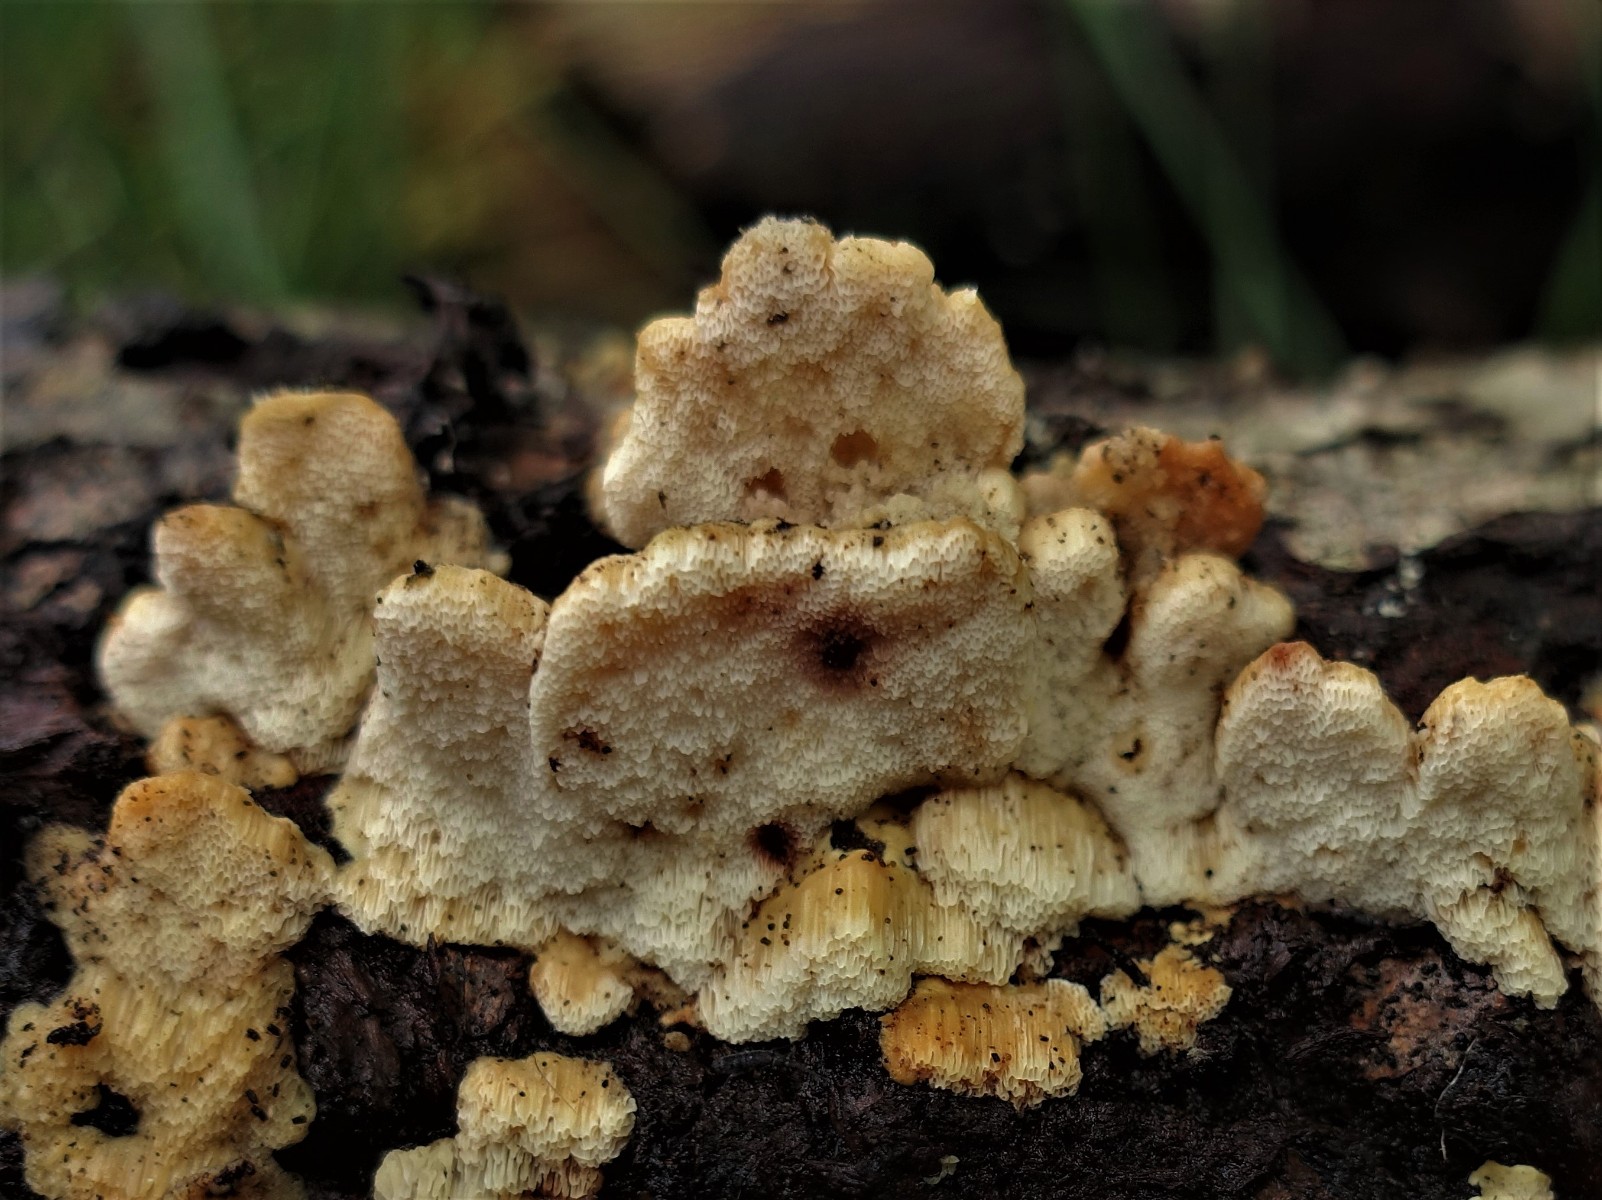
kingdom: Fungi
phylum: Basidiomycota
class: Agaricomycetes
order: Polyporales
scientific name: Polyporales
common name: poresvampordenen
